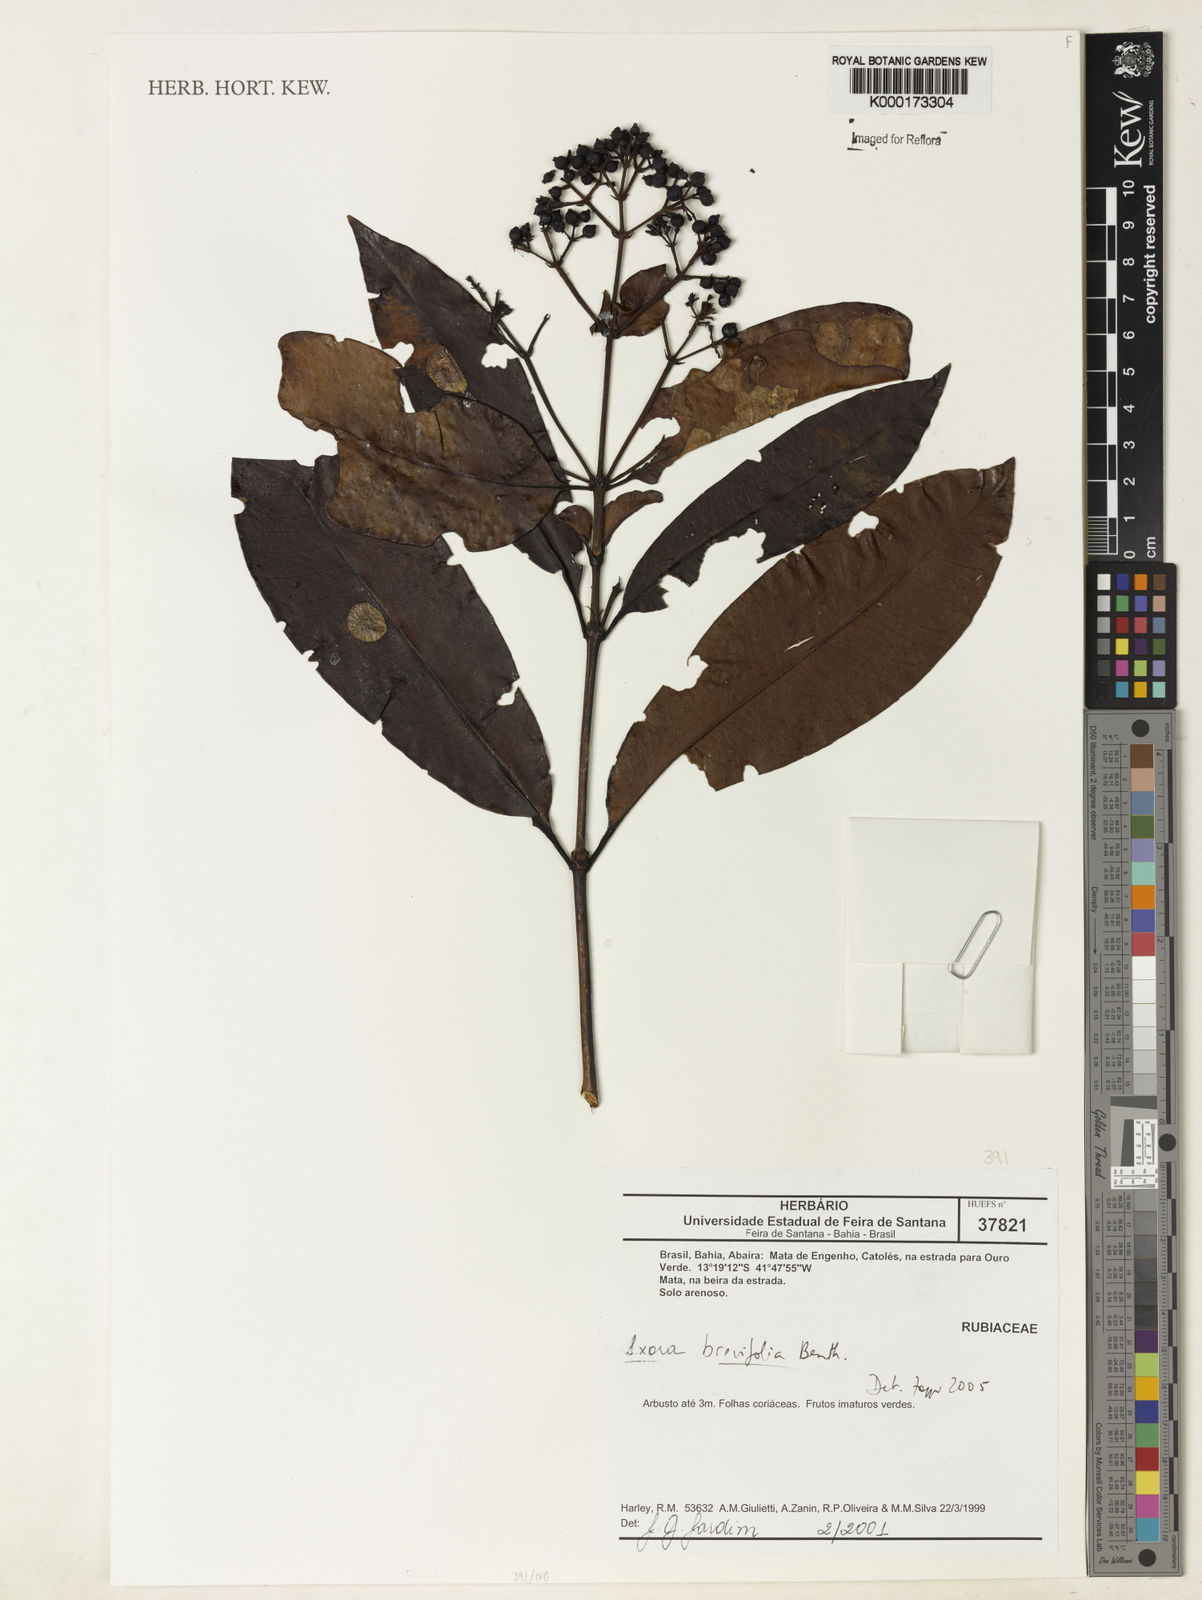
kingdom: Plantae
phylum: Tracheophyta
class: Magnoliopsida
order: Gentianales
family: Rubiaceae
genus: Ixora
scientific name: Ixora brevifolia
